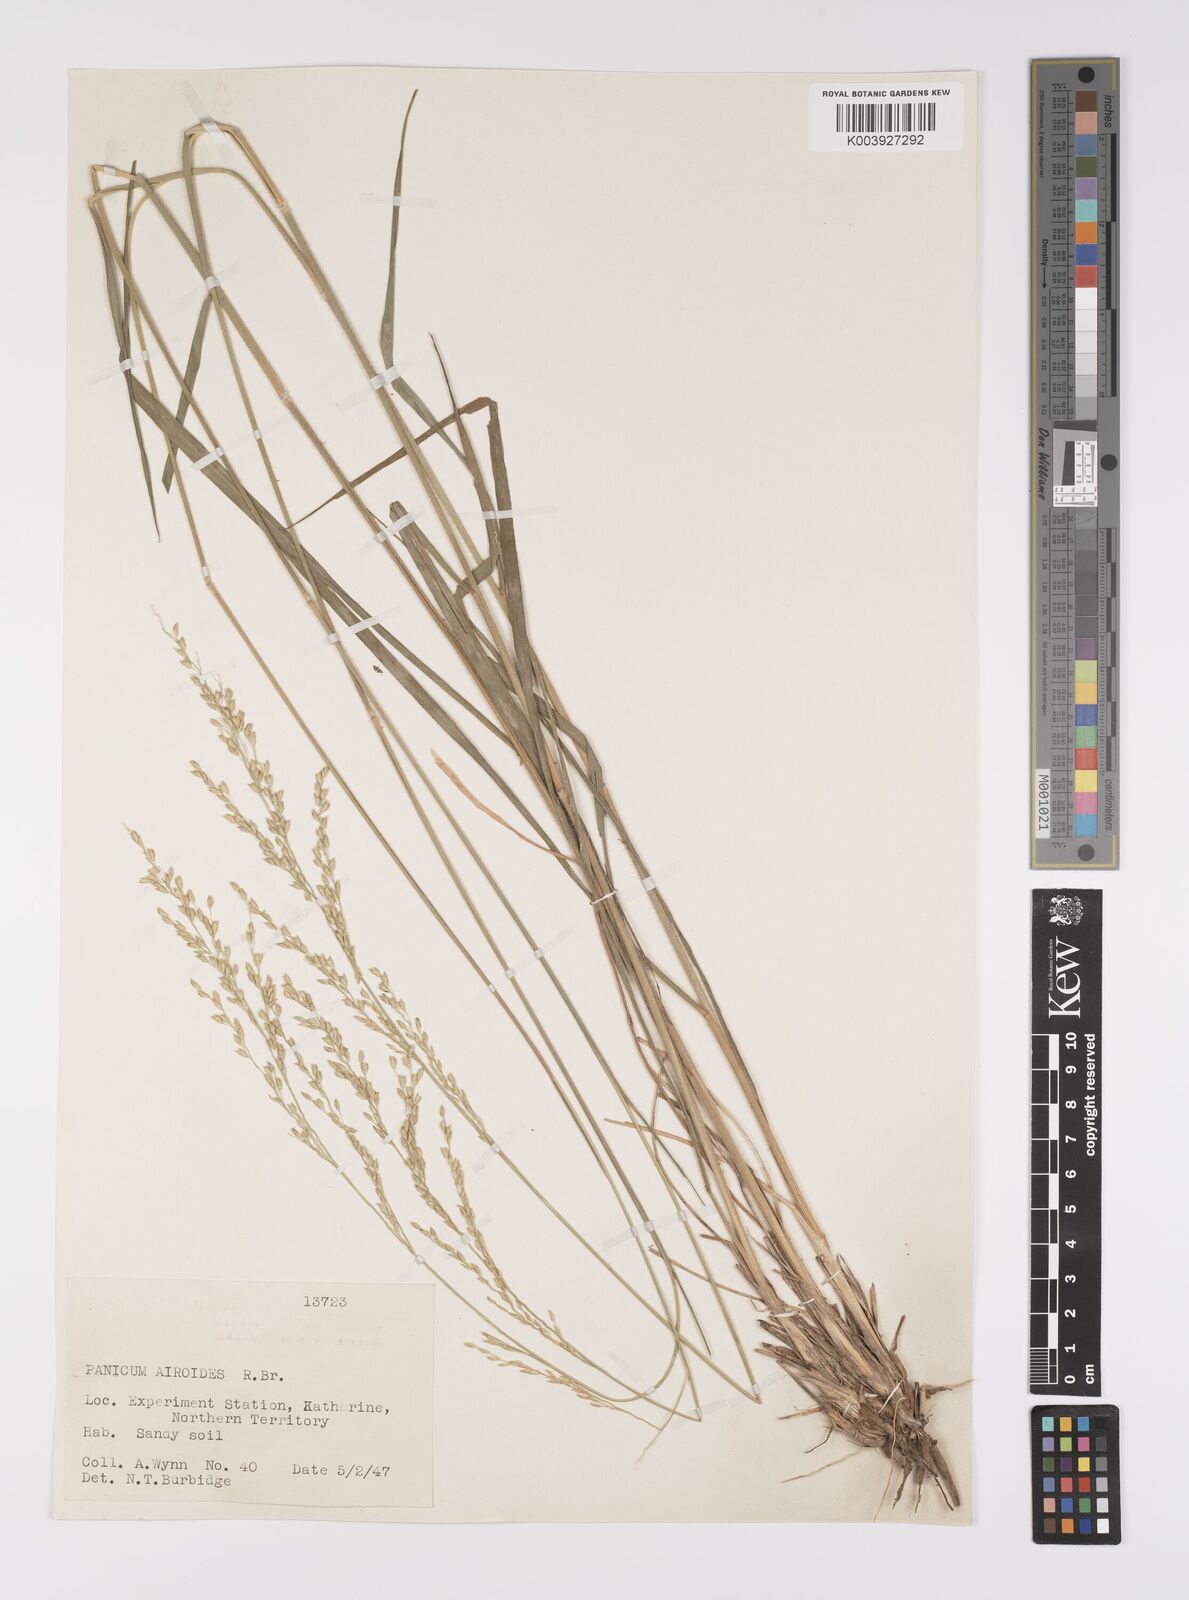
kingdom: Plantae
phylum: Tracheophyta
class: Liliopsida
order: Poales
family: Poaceae
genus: Whiteochloa
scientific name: Whiteochloa airoides
